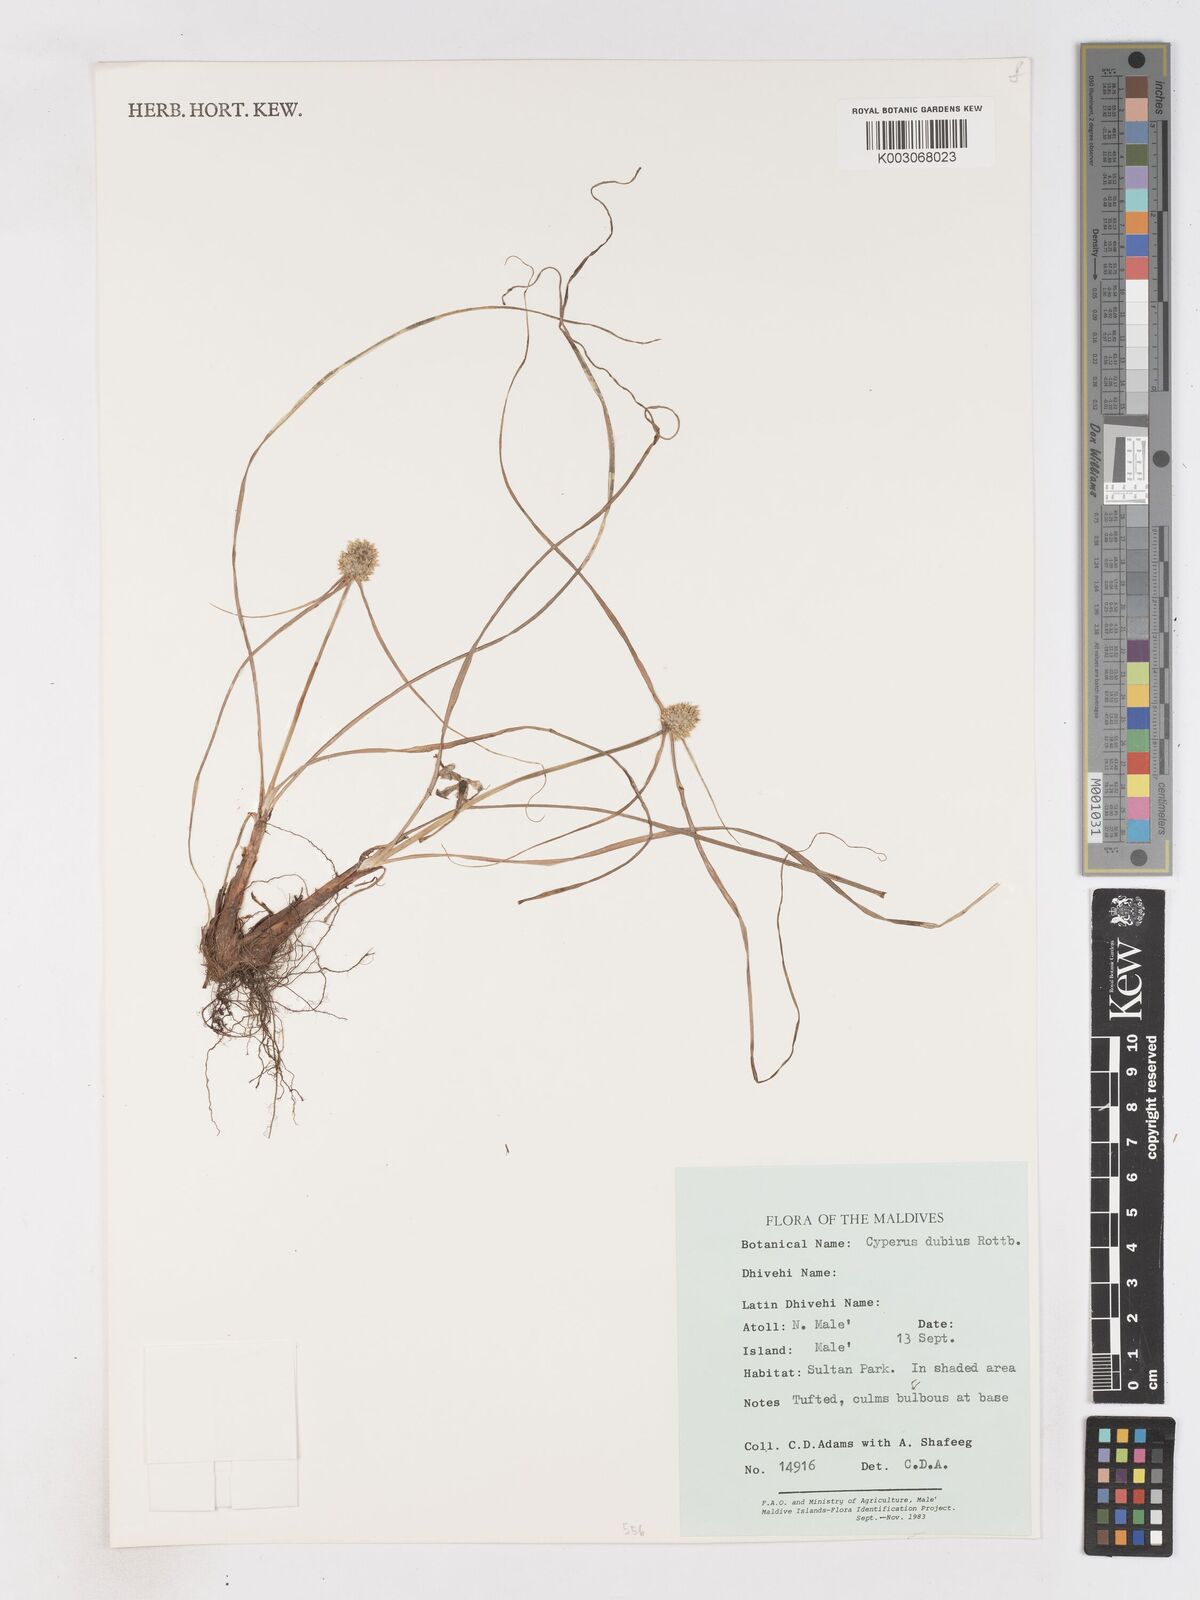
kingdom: Plantae
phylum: Tracheophyta
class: Liliopsida
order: Poales
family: Cyperaceae
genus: Cyperus
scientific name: Cyperus dubius
